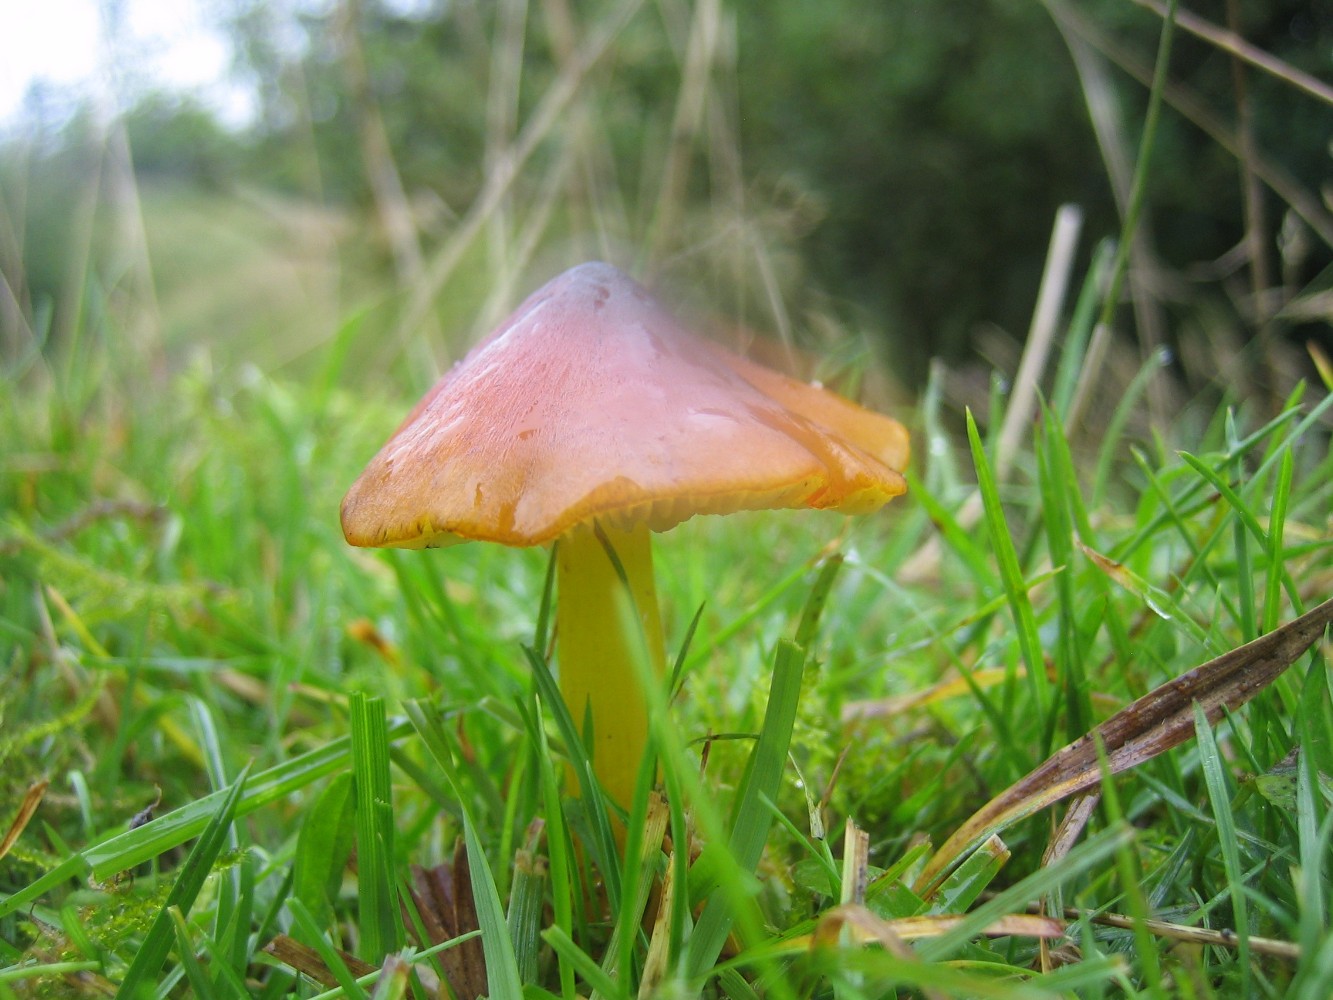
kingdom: Fungi
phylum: Basidiomycota
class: Agaricomycetes
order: Agaricales
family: Hygrophoraceae
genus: Hygrocybe
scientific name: Hygrocybe conica
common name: kegle-vokshat
